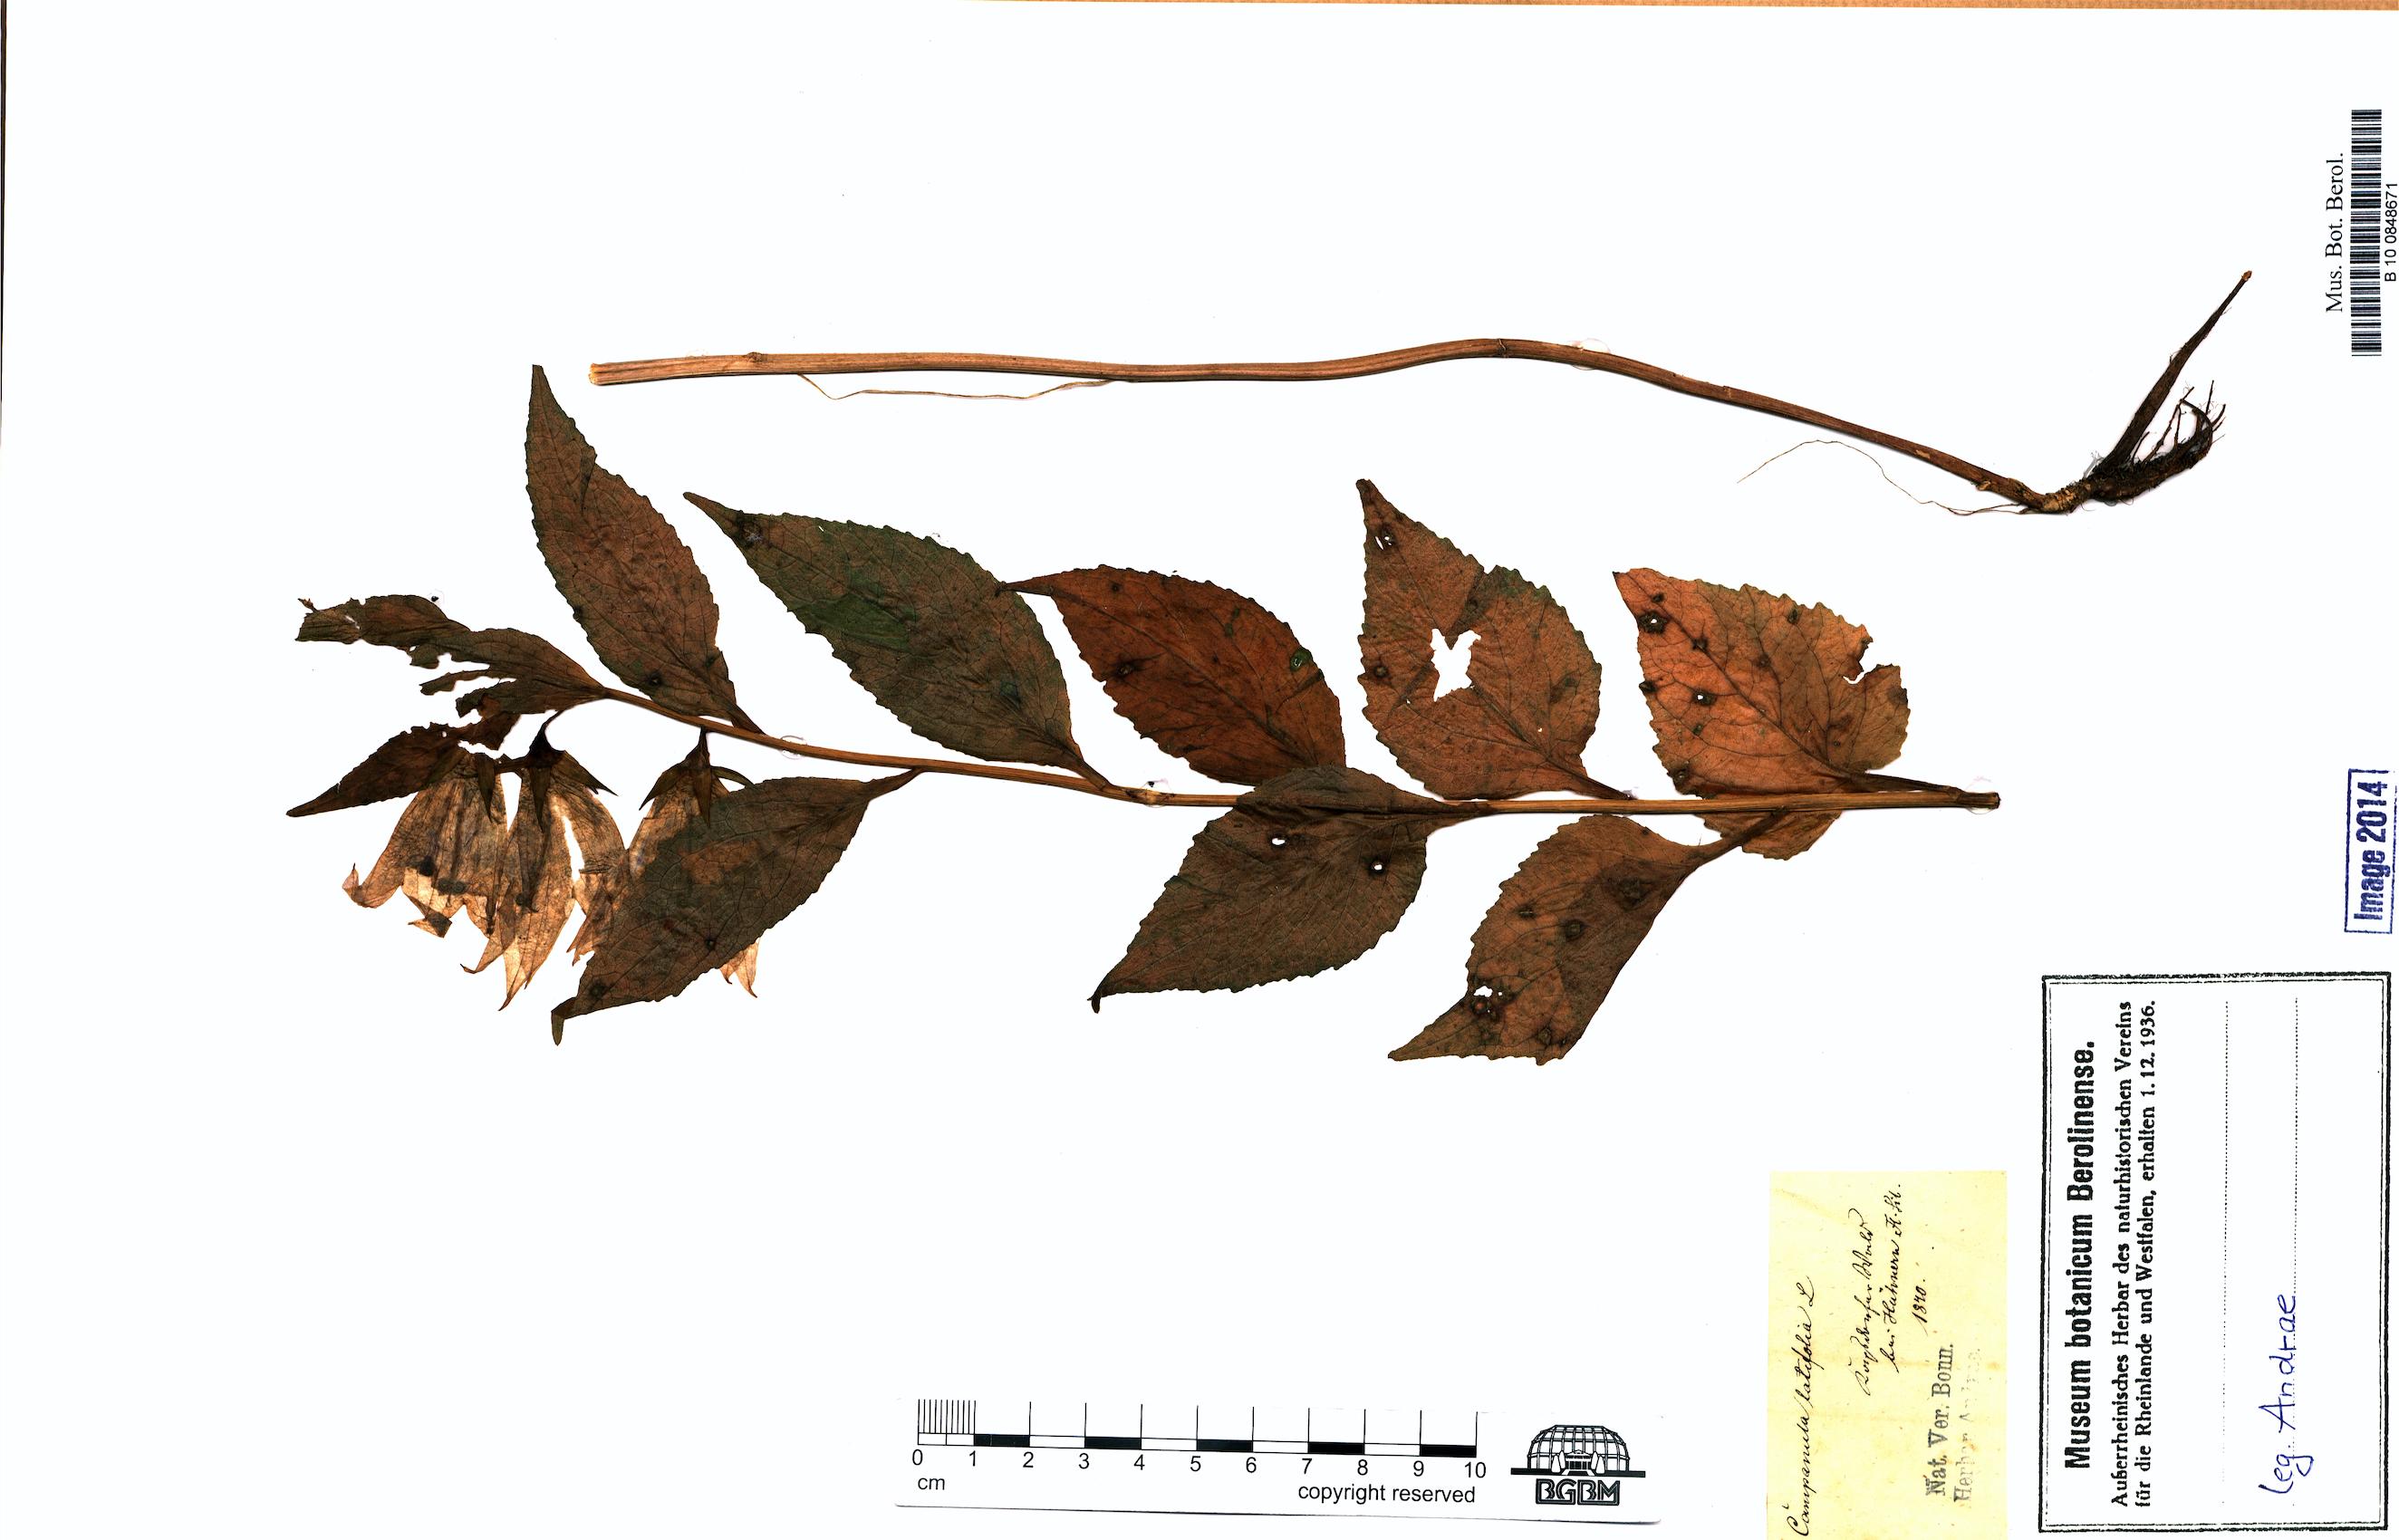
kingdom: Plantae
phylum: Tracheophyta
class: Magnoliopsida
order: Asterales
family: Campanulaceae
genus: Campanula
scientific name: Campanula latifolia
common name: Giant bellflower
